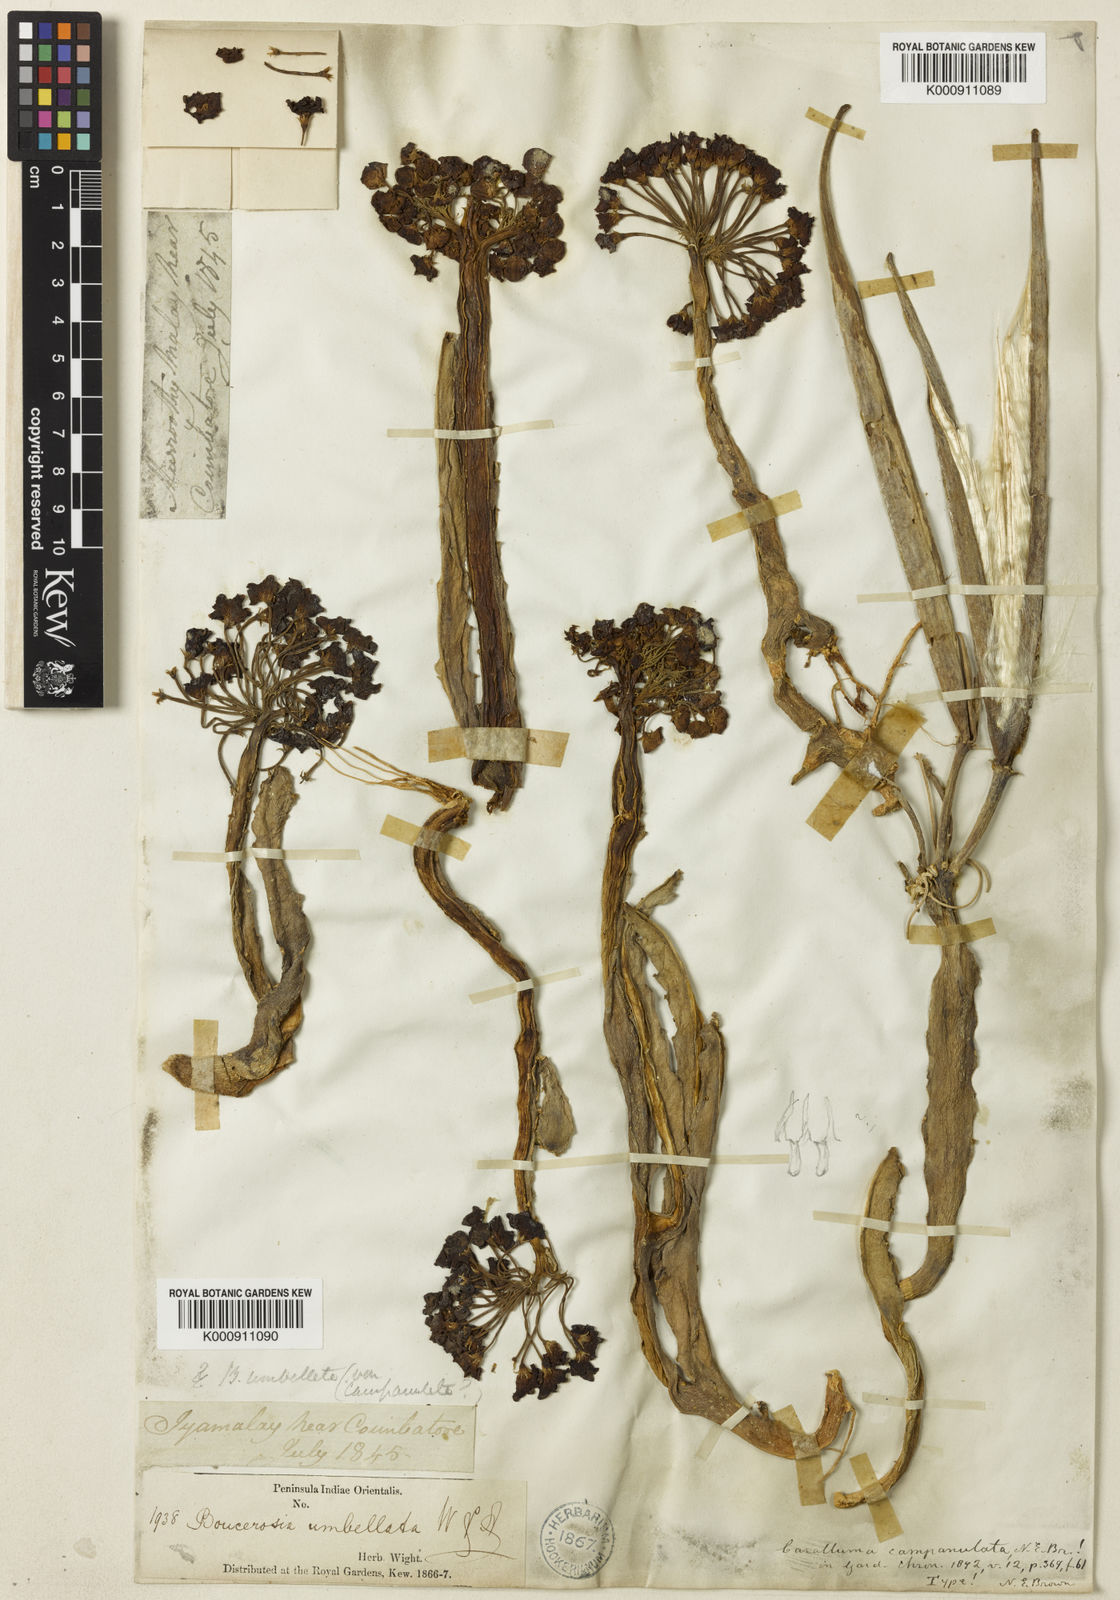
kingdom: Plantae
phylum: Tracheophyta
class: Magnoliopsida
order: Gentianales
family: Apocynaceae
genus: Ceropegia
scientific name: Ceropegia umbellata
